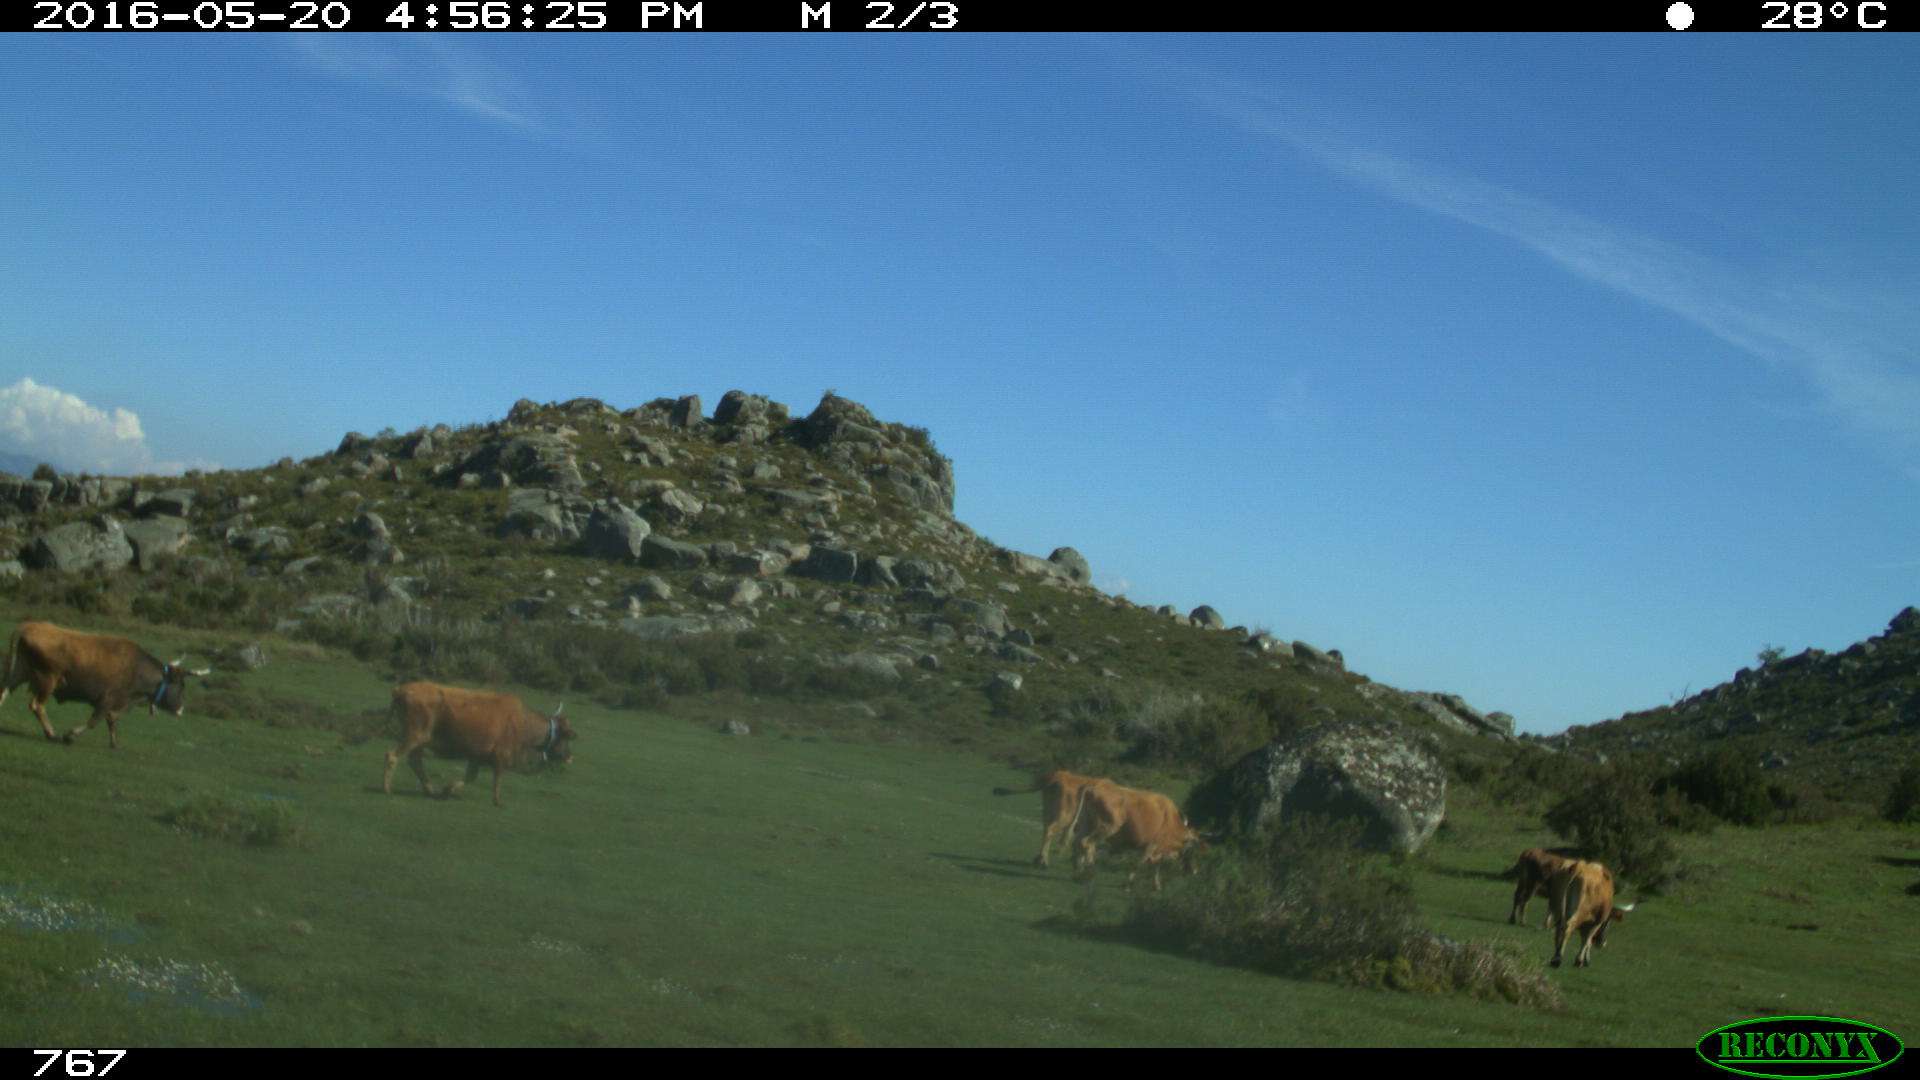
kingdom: Animalia
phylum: Chordata
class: Mammalia
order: Artiodactyla
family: Bovidae
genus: Bos
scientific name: Bos taurus
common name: Domesticated cattle
